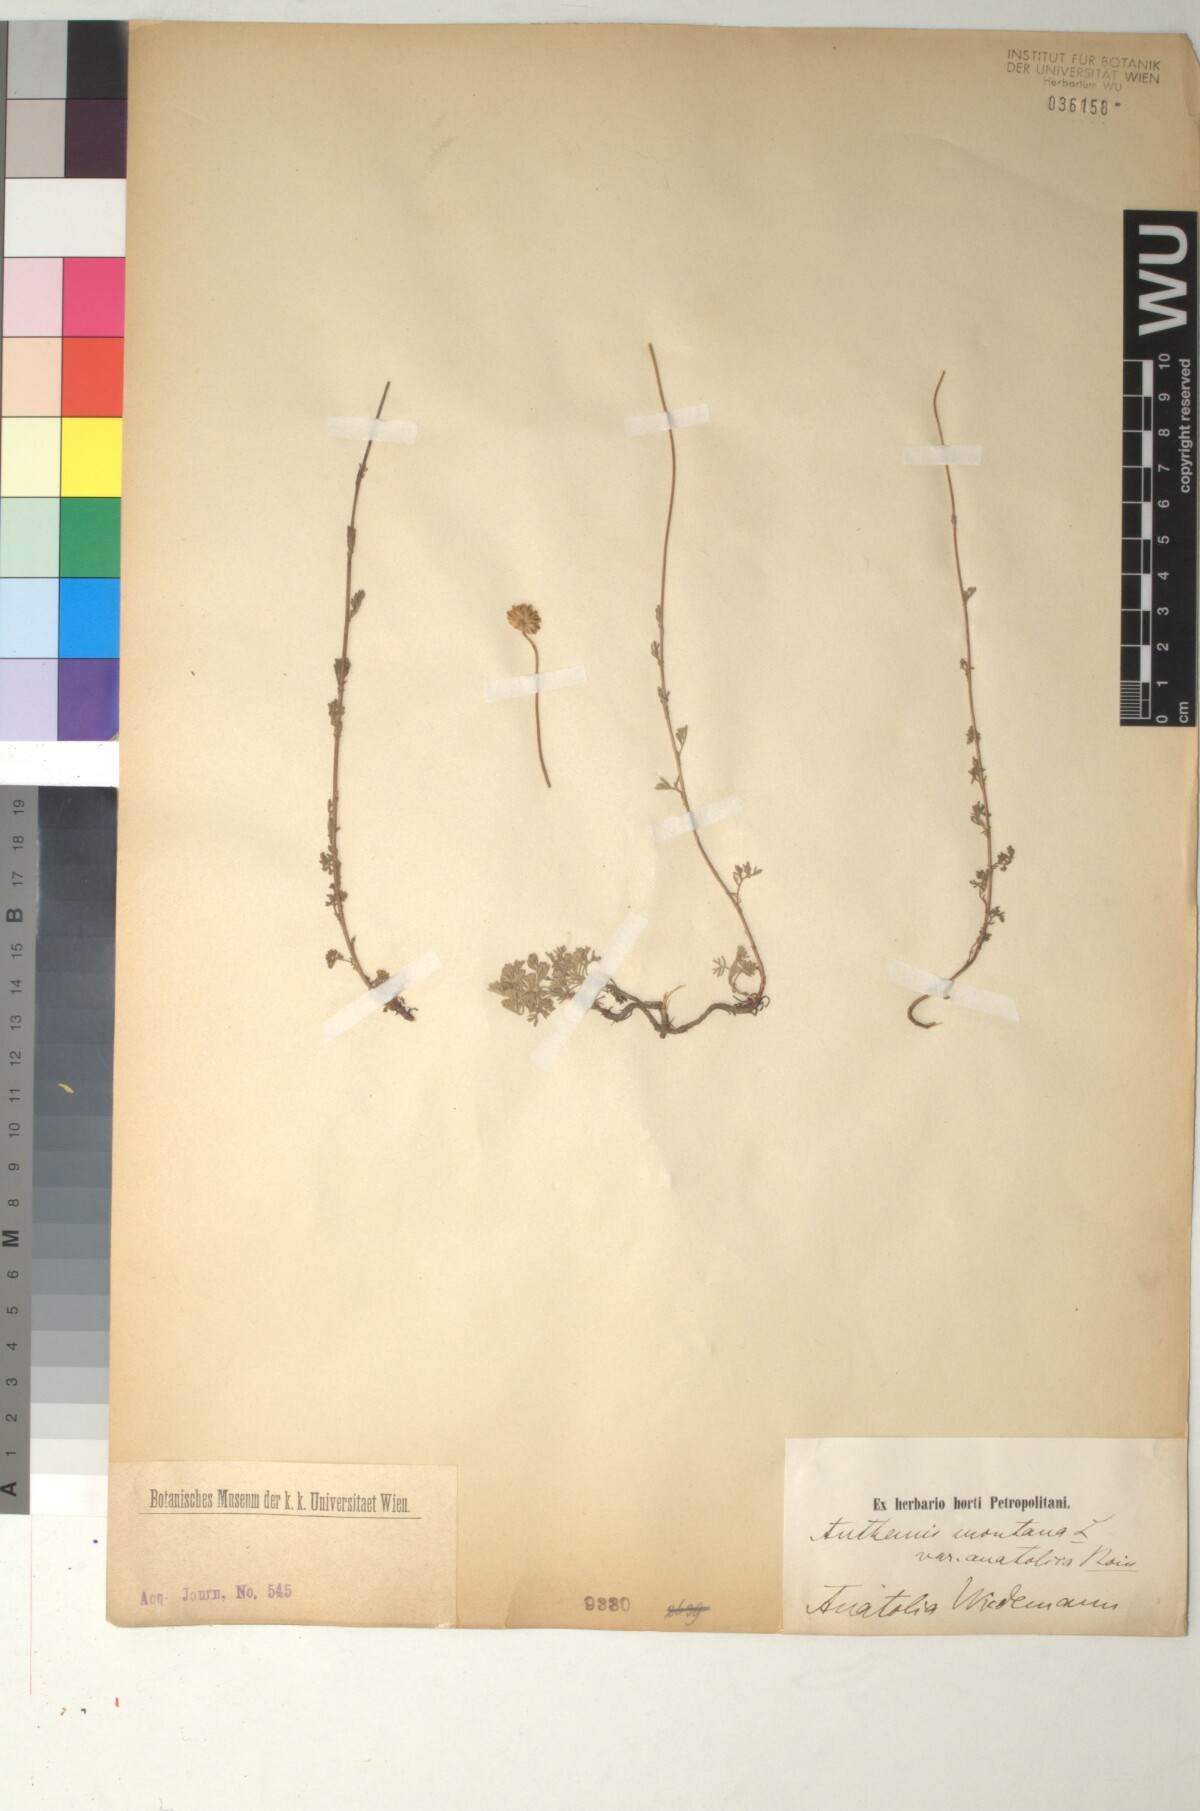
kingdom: Plantae
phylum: Tracheophyta
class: Magnoliopsida
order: Asterales
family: Asteraceae
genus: Anthemis
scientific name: Anthemis cretica
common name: Mountain dog-daisy
